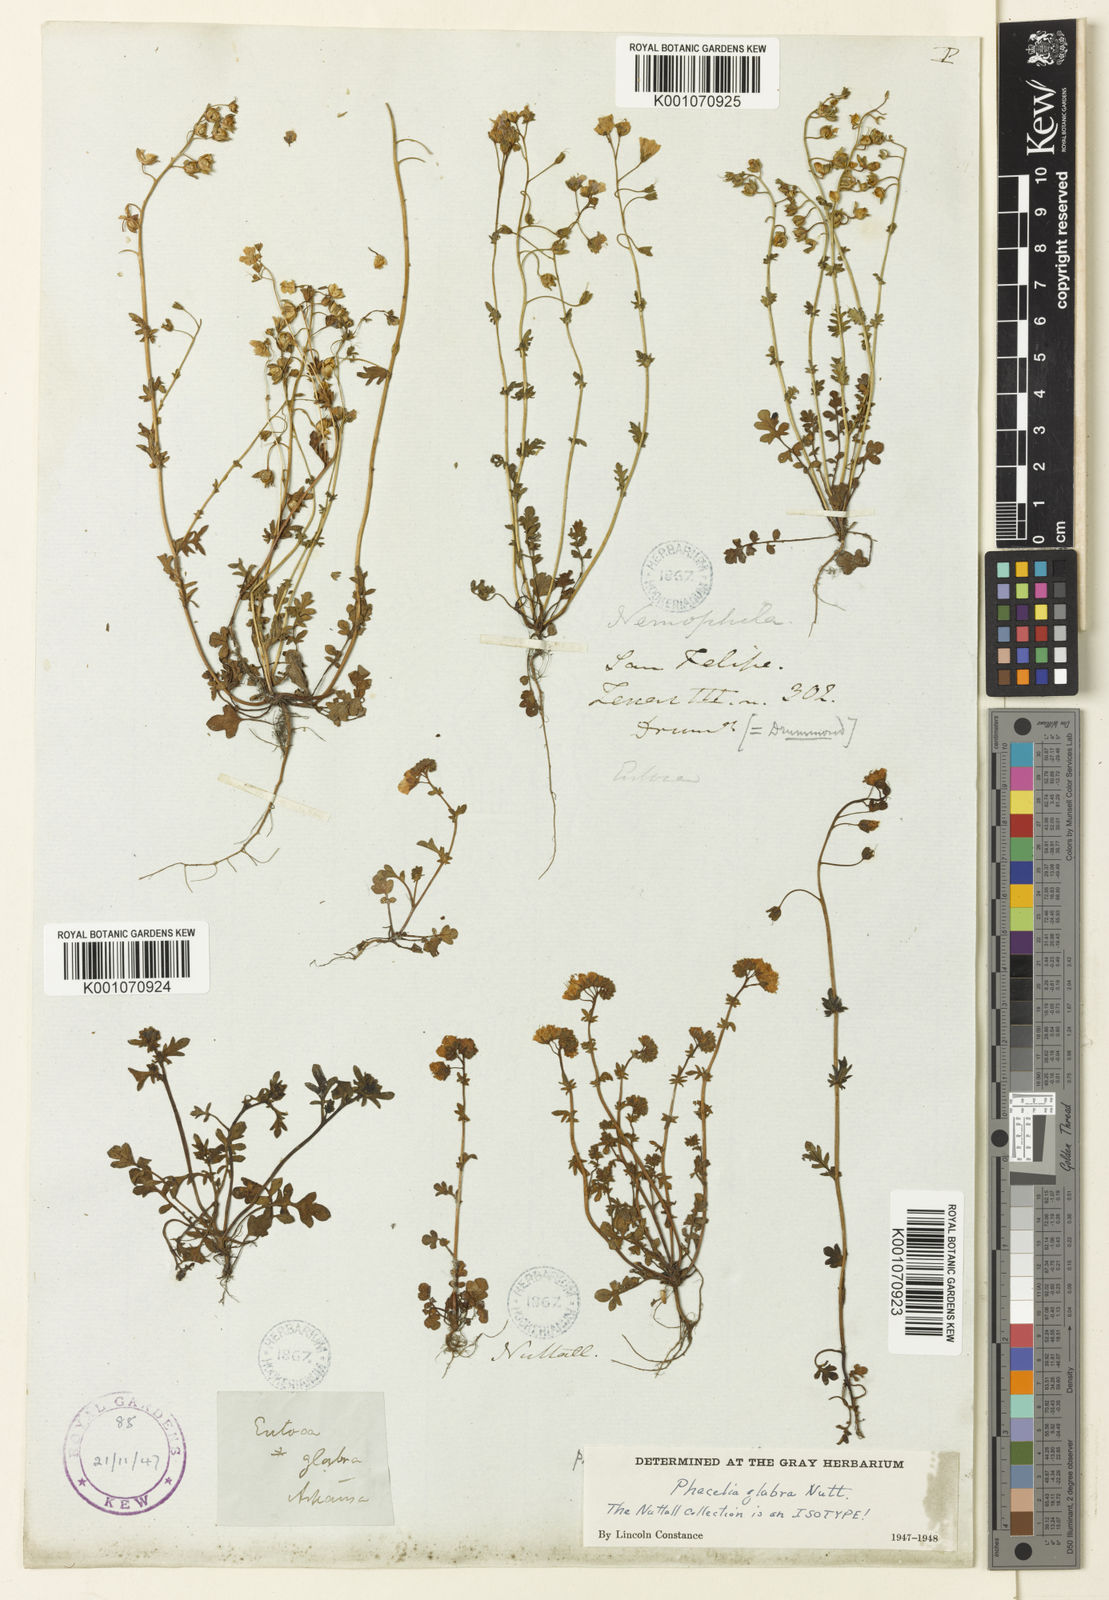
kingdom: Plantae
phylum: Tracheophyta
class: Magnoliopsida
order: Boraginales
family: Hydrophyllaceae
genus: Phacelia
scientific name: Phacelia glabra
